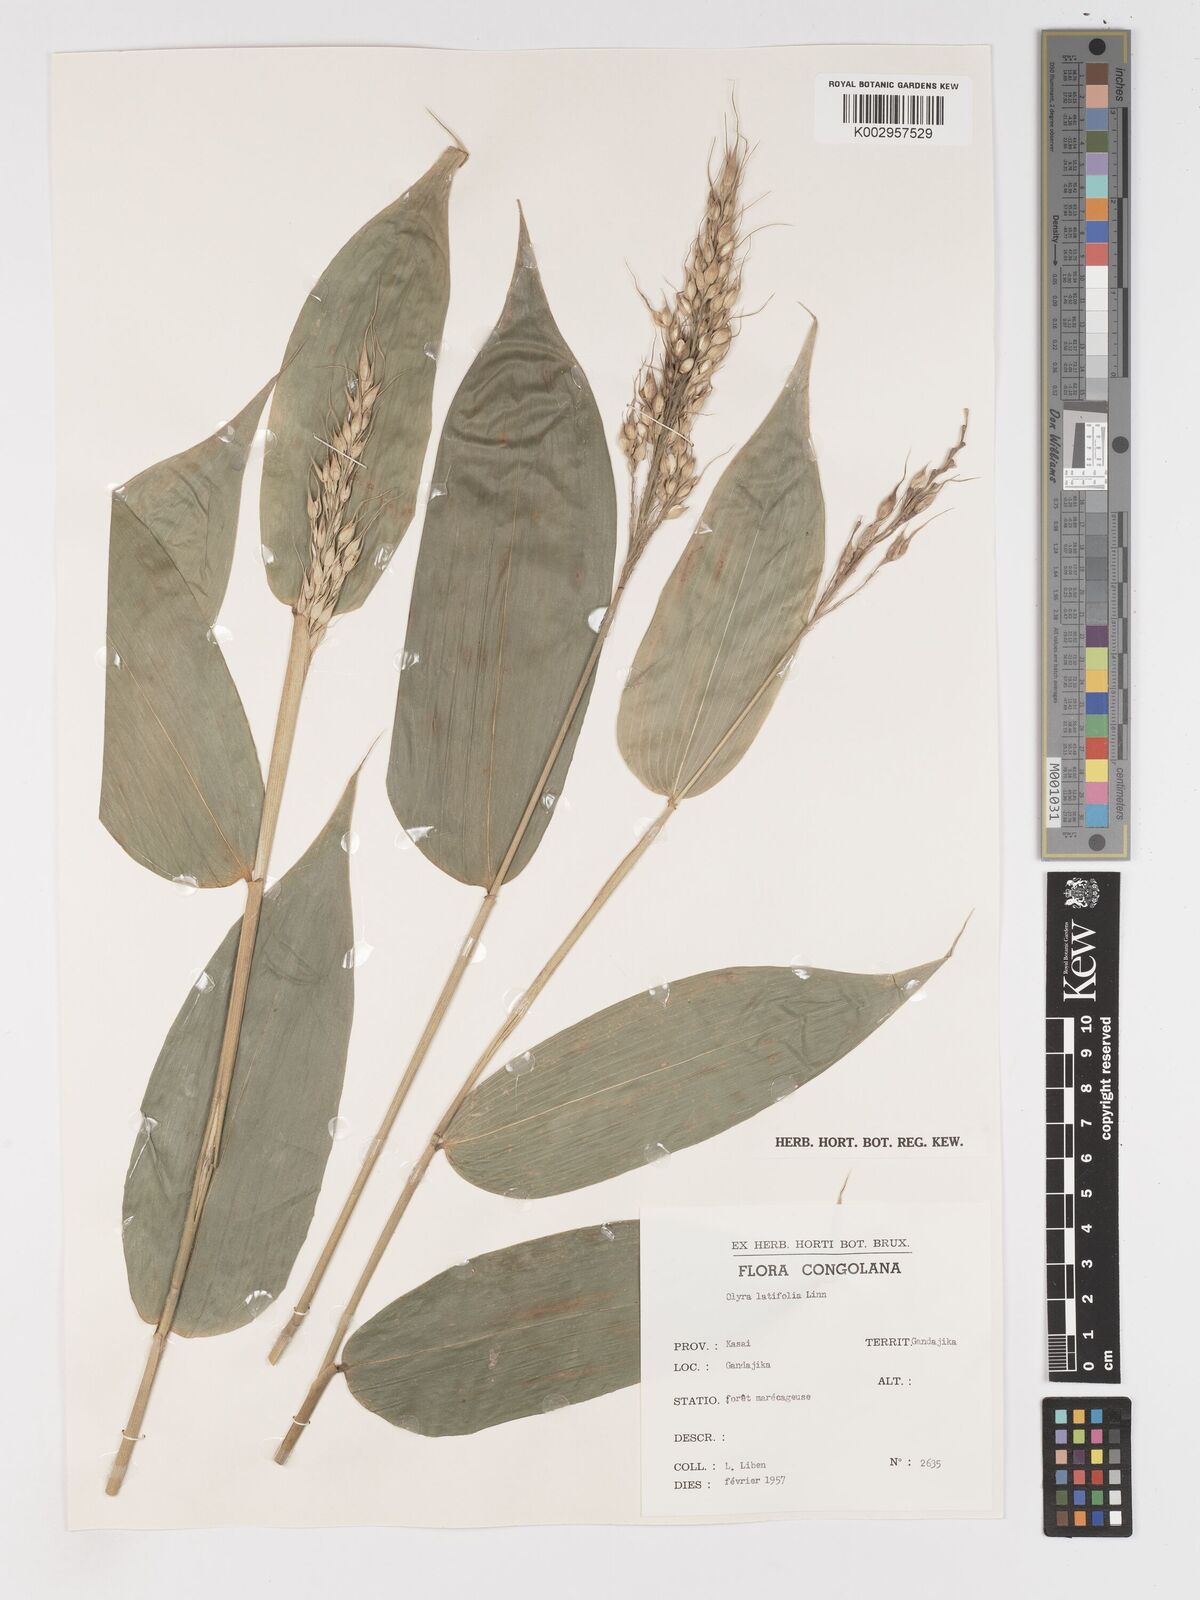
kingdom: Plantae
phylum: Tracheophyta
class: Liliopsida
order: Poales
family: Poaceae
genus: Olyra
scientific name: Olyra latifolia
